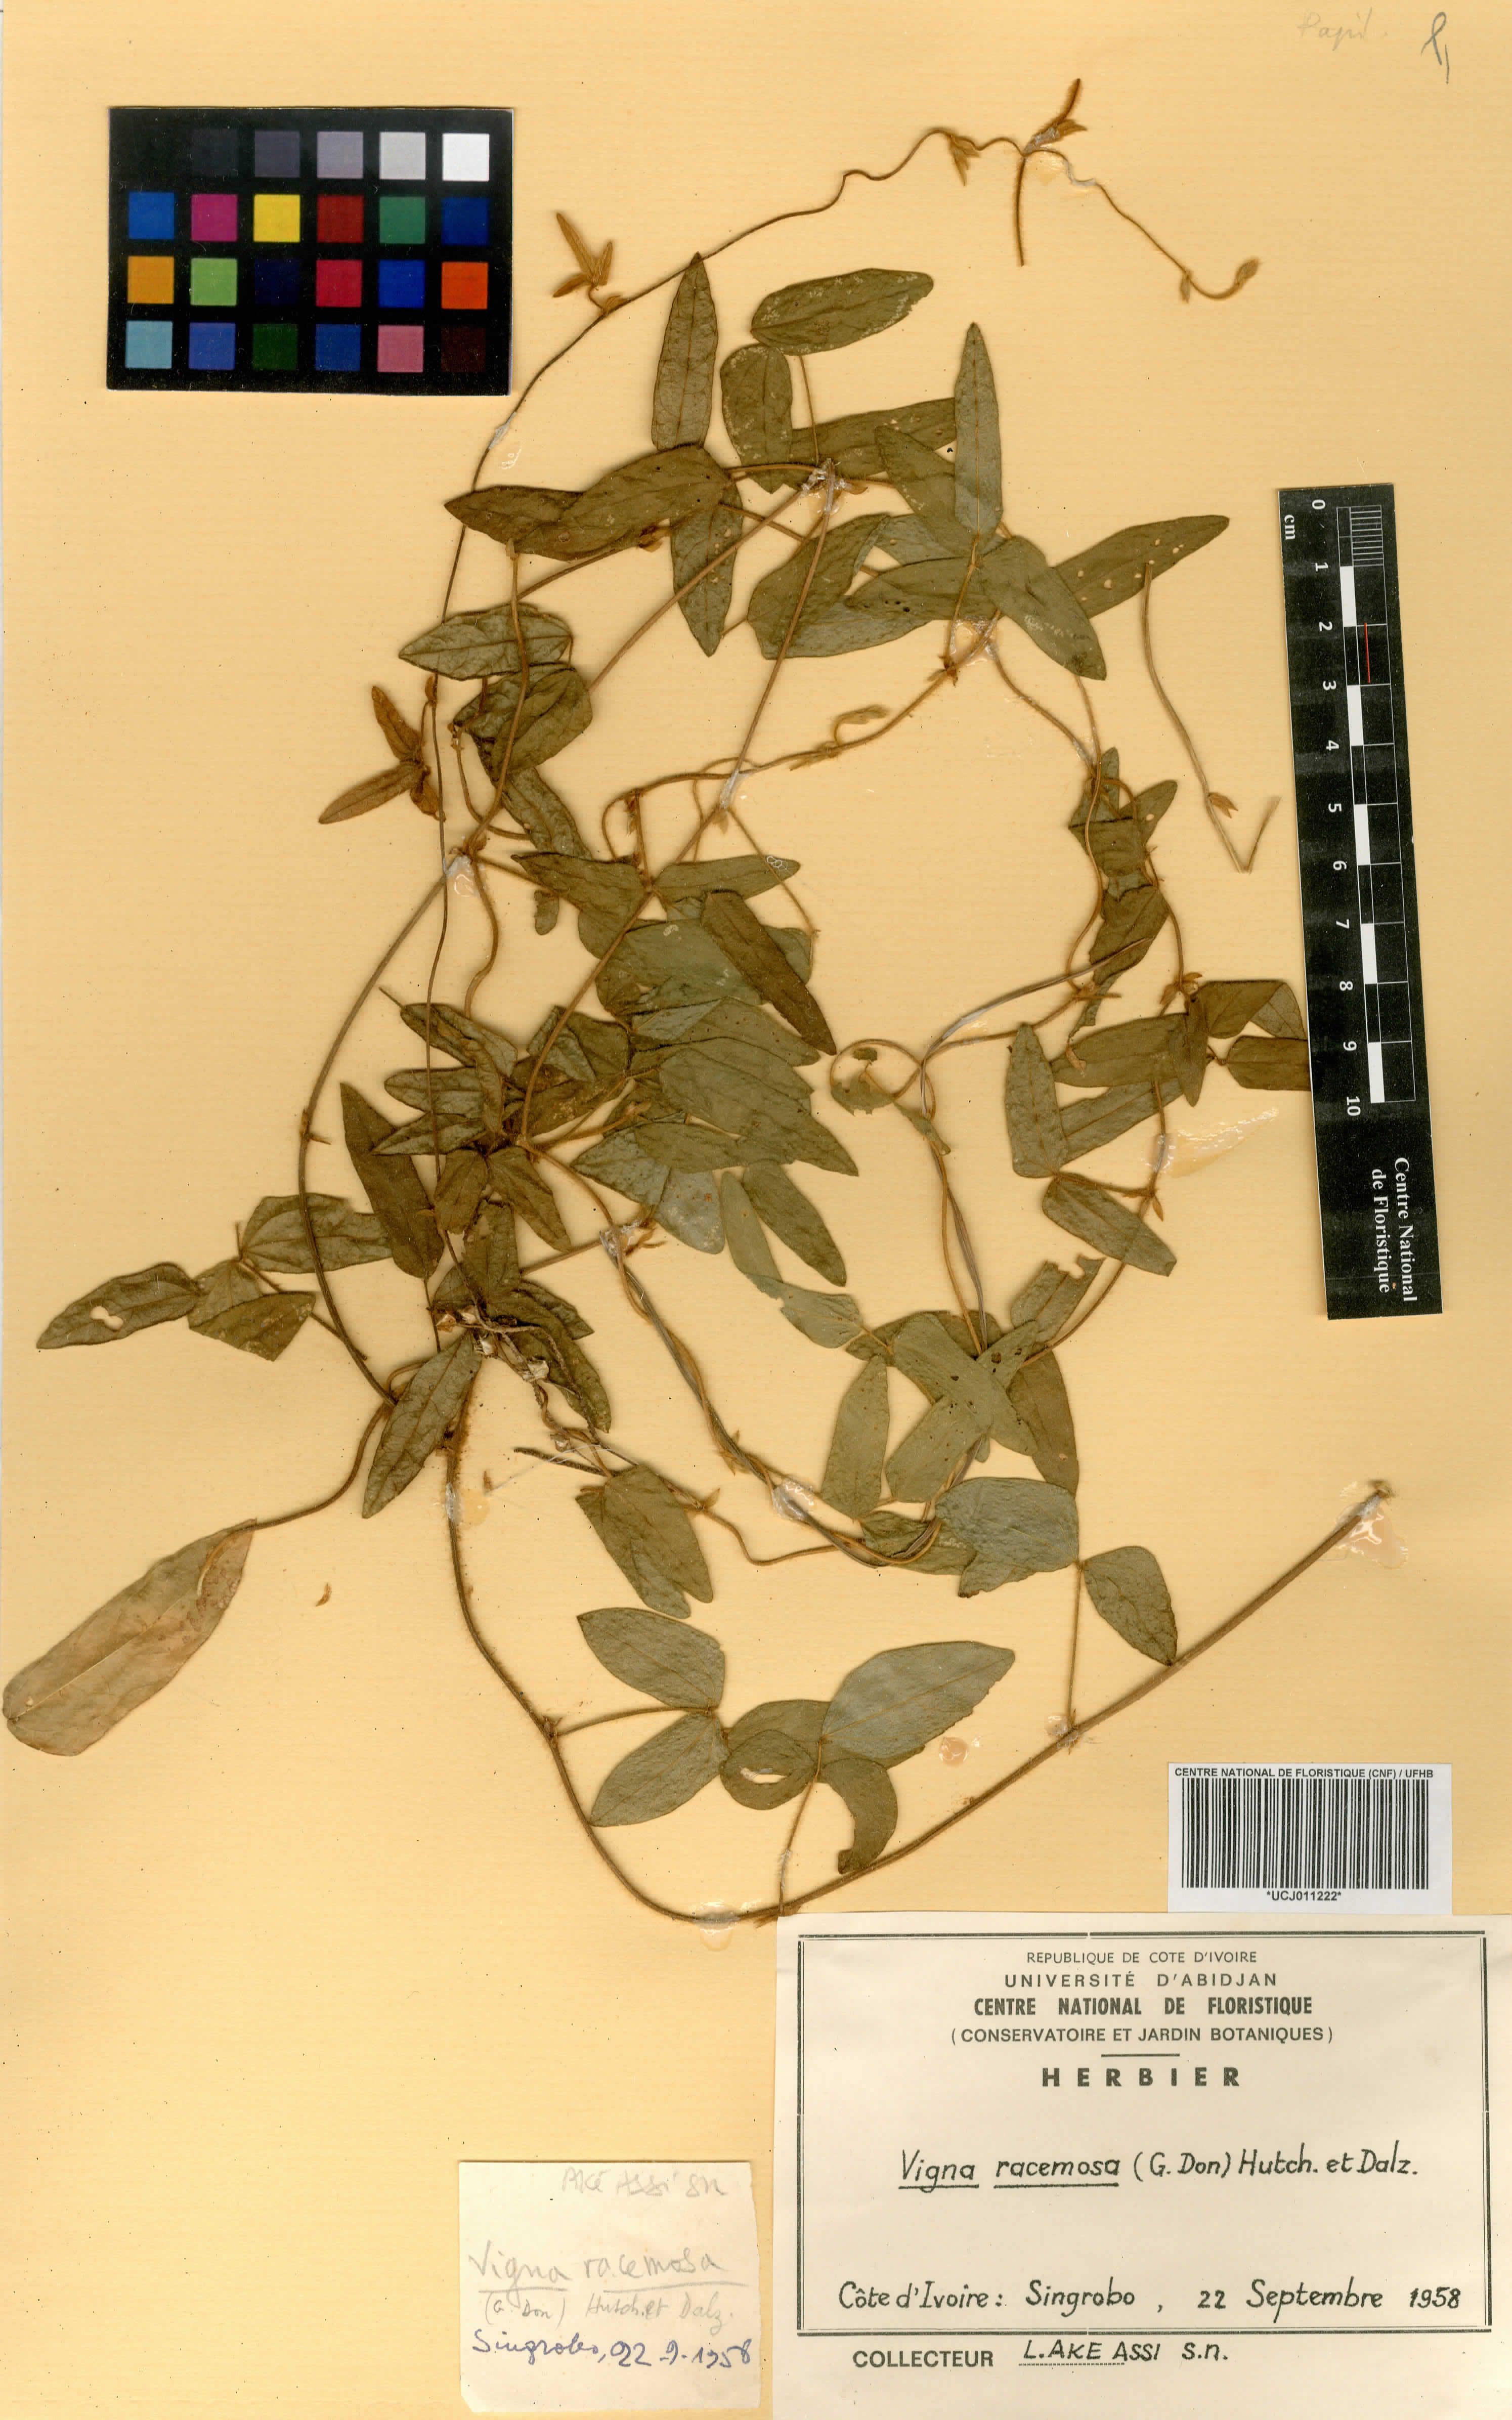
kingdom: Plantae
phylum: Tracheophyta
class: Magnoliopsida
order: Fabales
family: Fabaceae
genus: Vigna
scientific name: Vigna racemosa
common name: Beans not eaten
